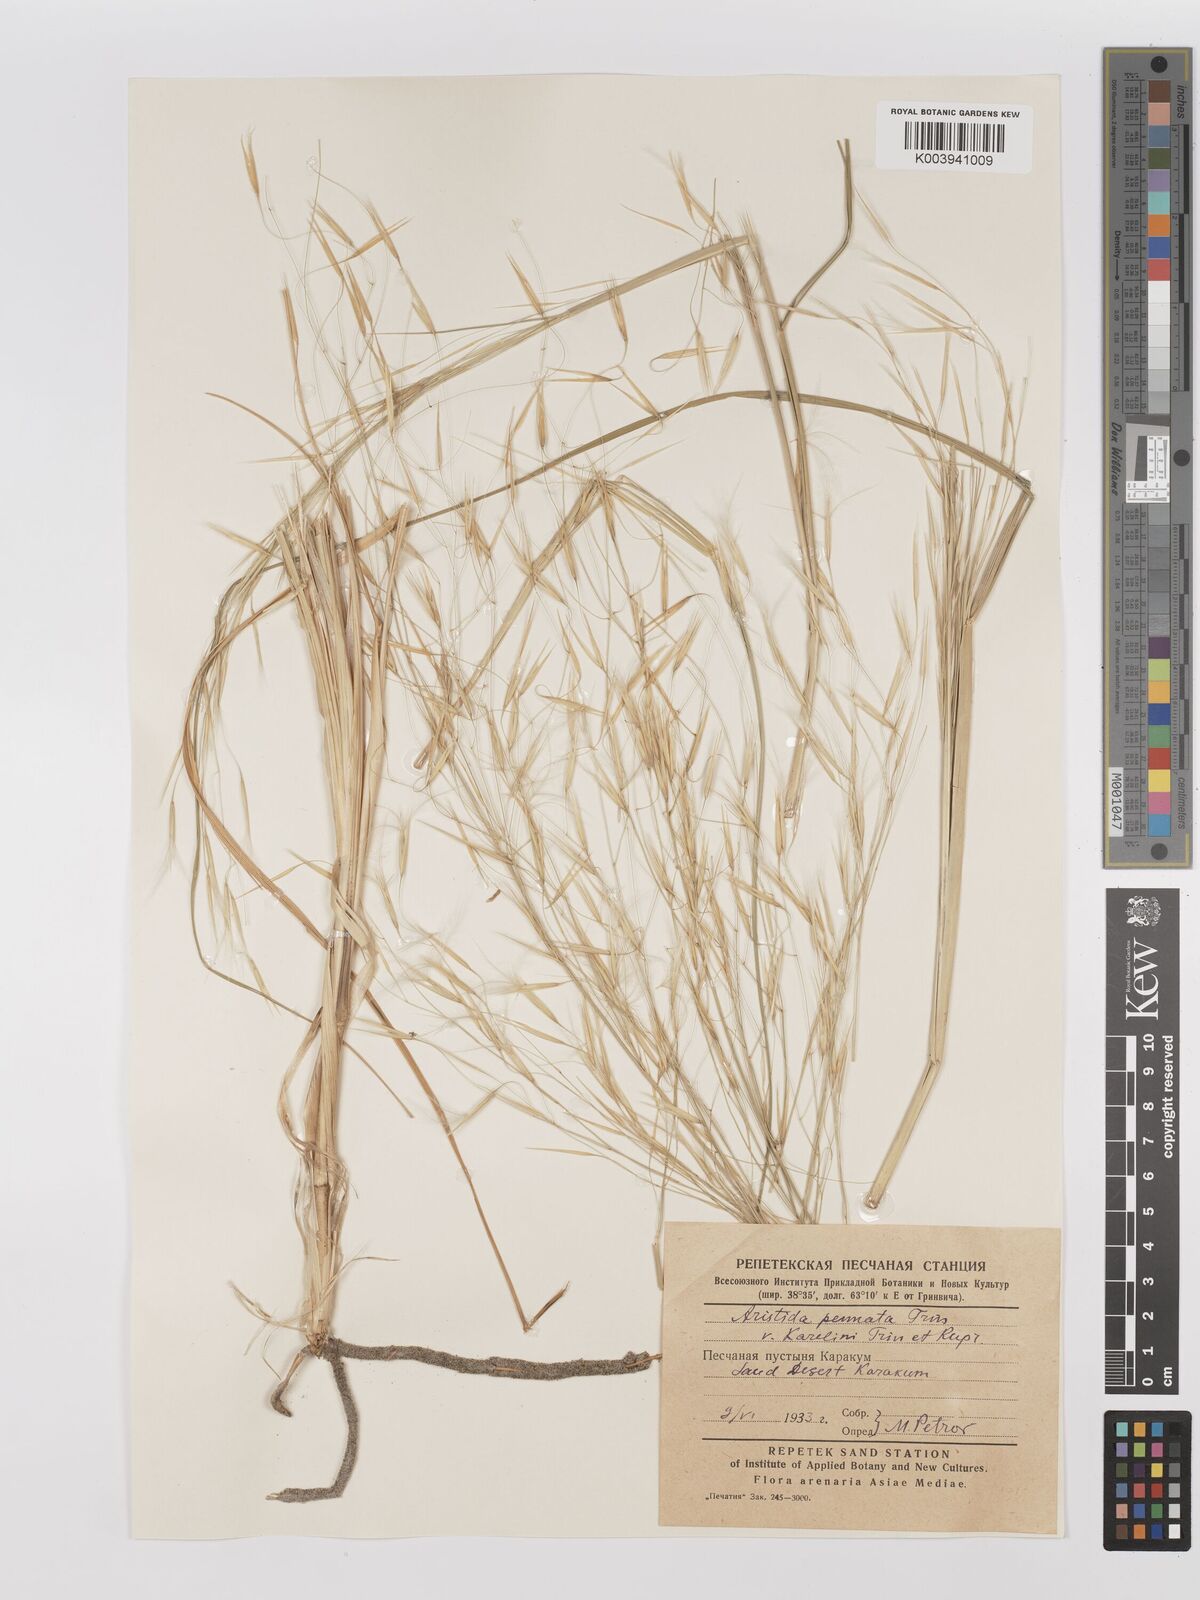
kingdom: Plantae
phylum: Tracheophyta
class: Liliopsida
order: Poales
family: Poaceae
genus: Stipagrostis
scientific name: Stipagrostis karelinii
